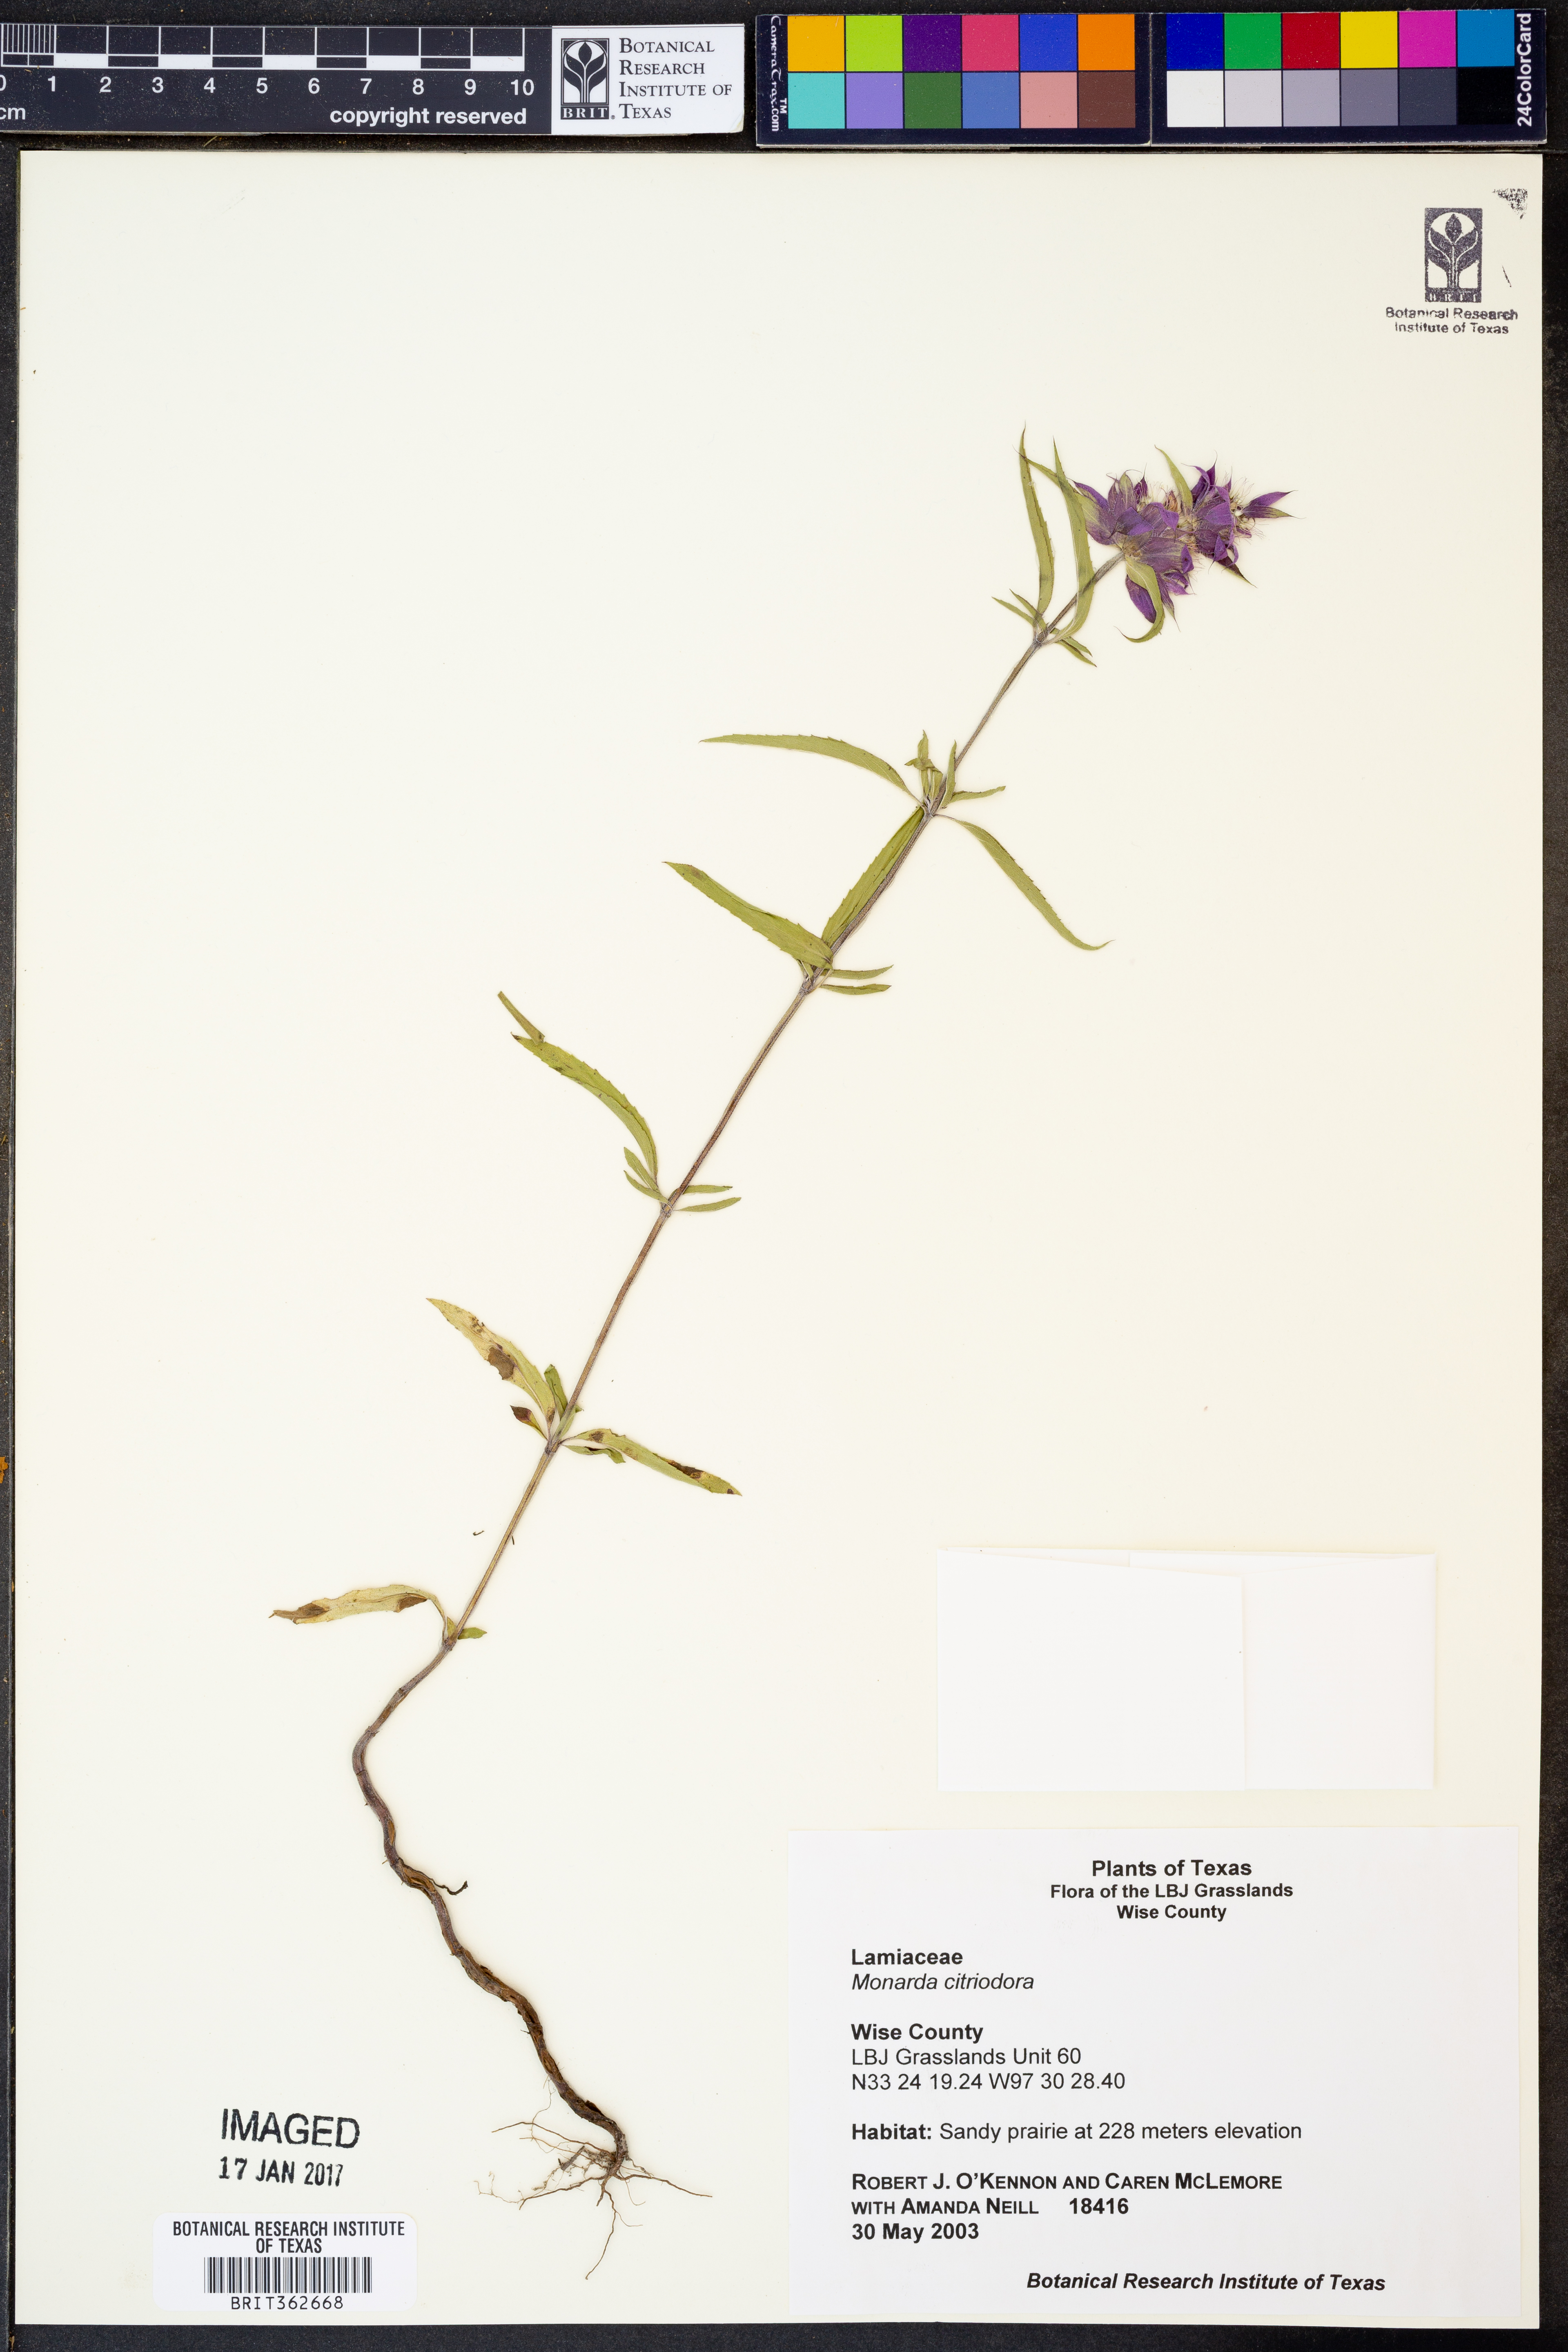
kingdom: Plantae
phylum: Tracheophyta
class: Magnoliopsida
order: Lamiales
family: Lamiaceae
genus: Monarda
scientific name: Monarda citriodora
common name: Lemon beebalm
